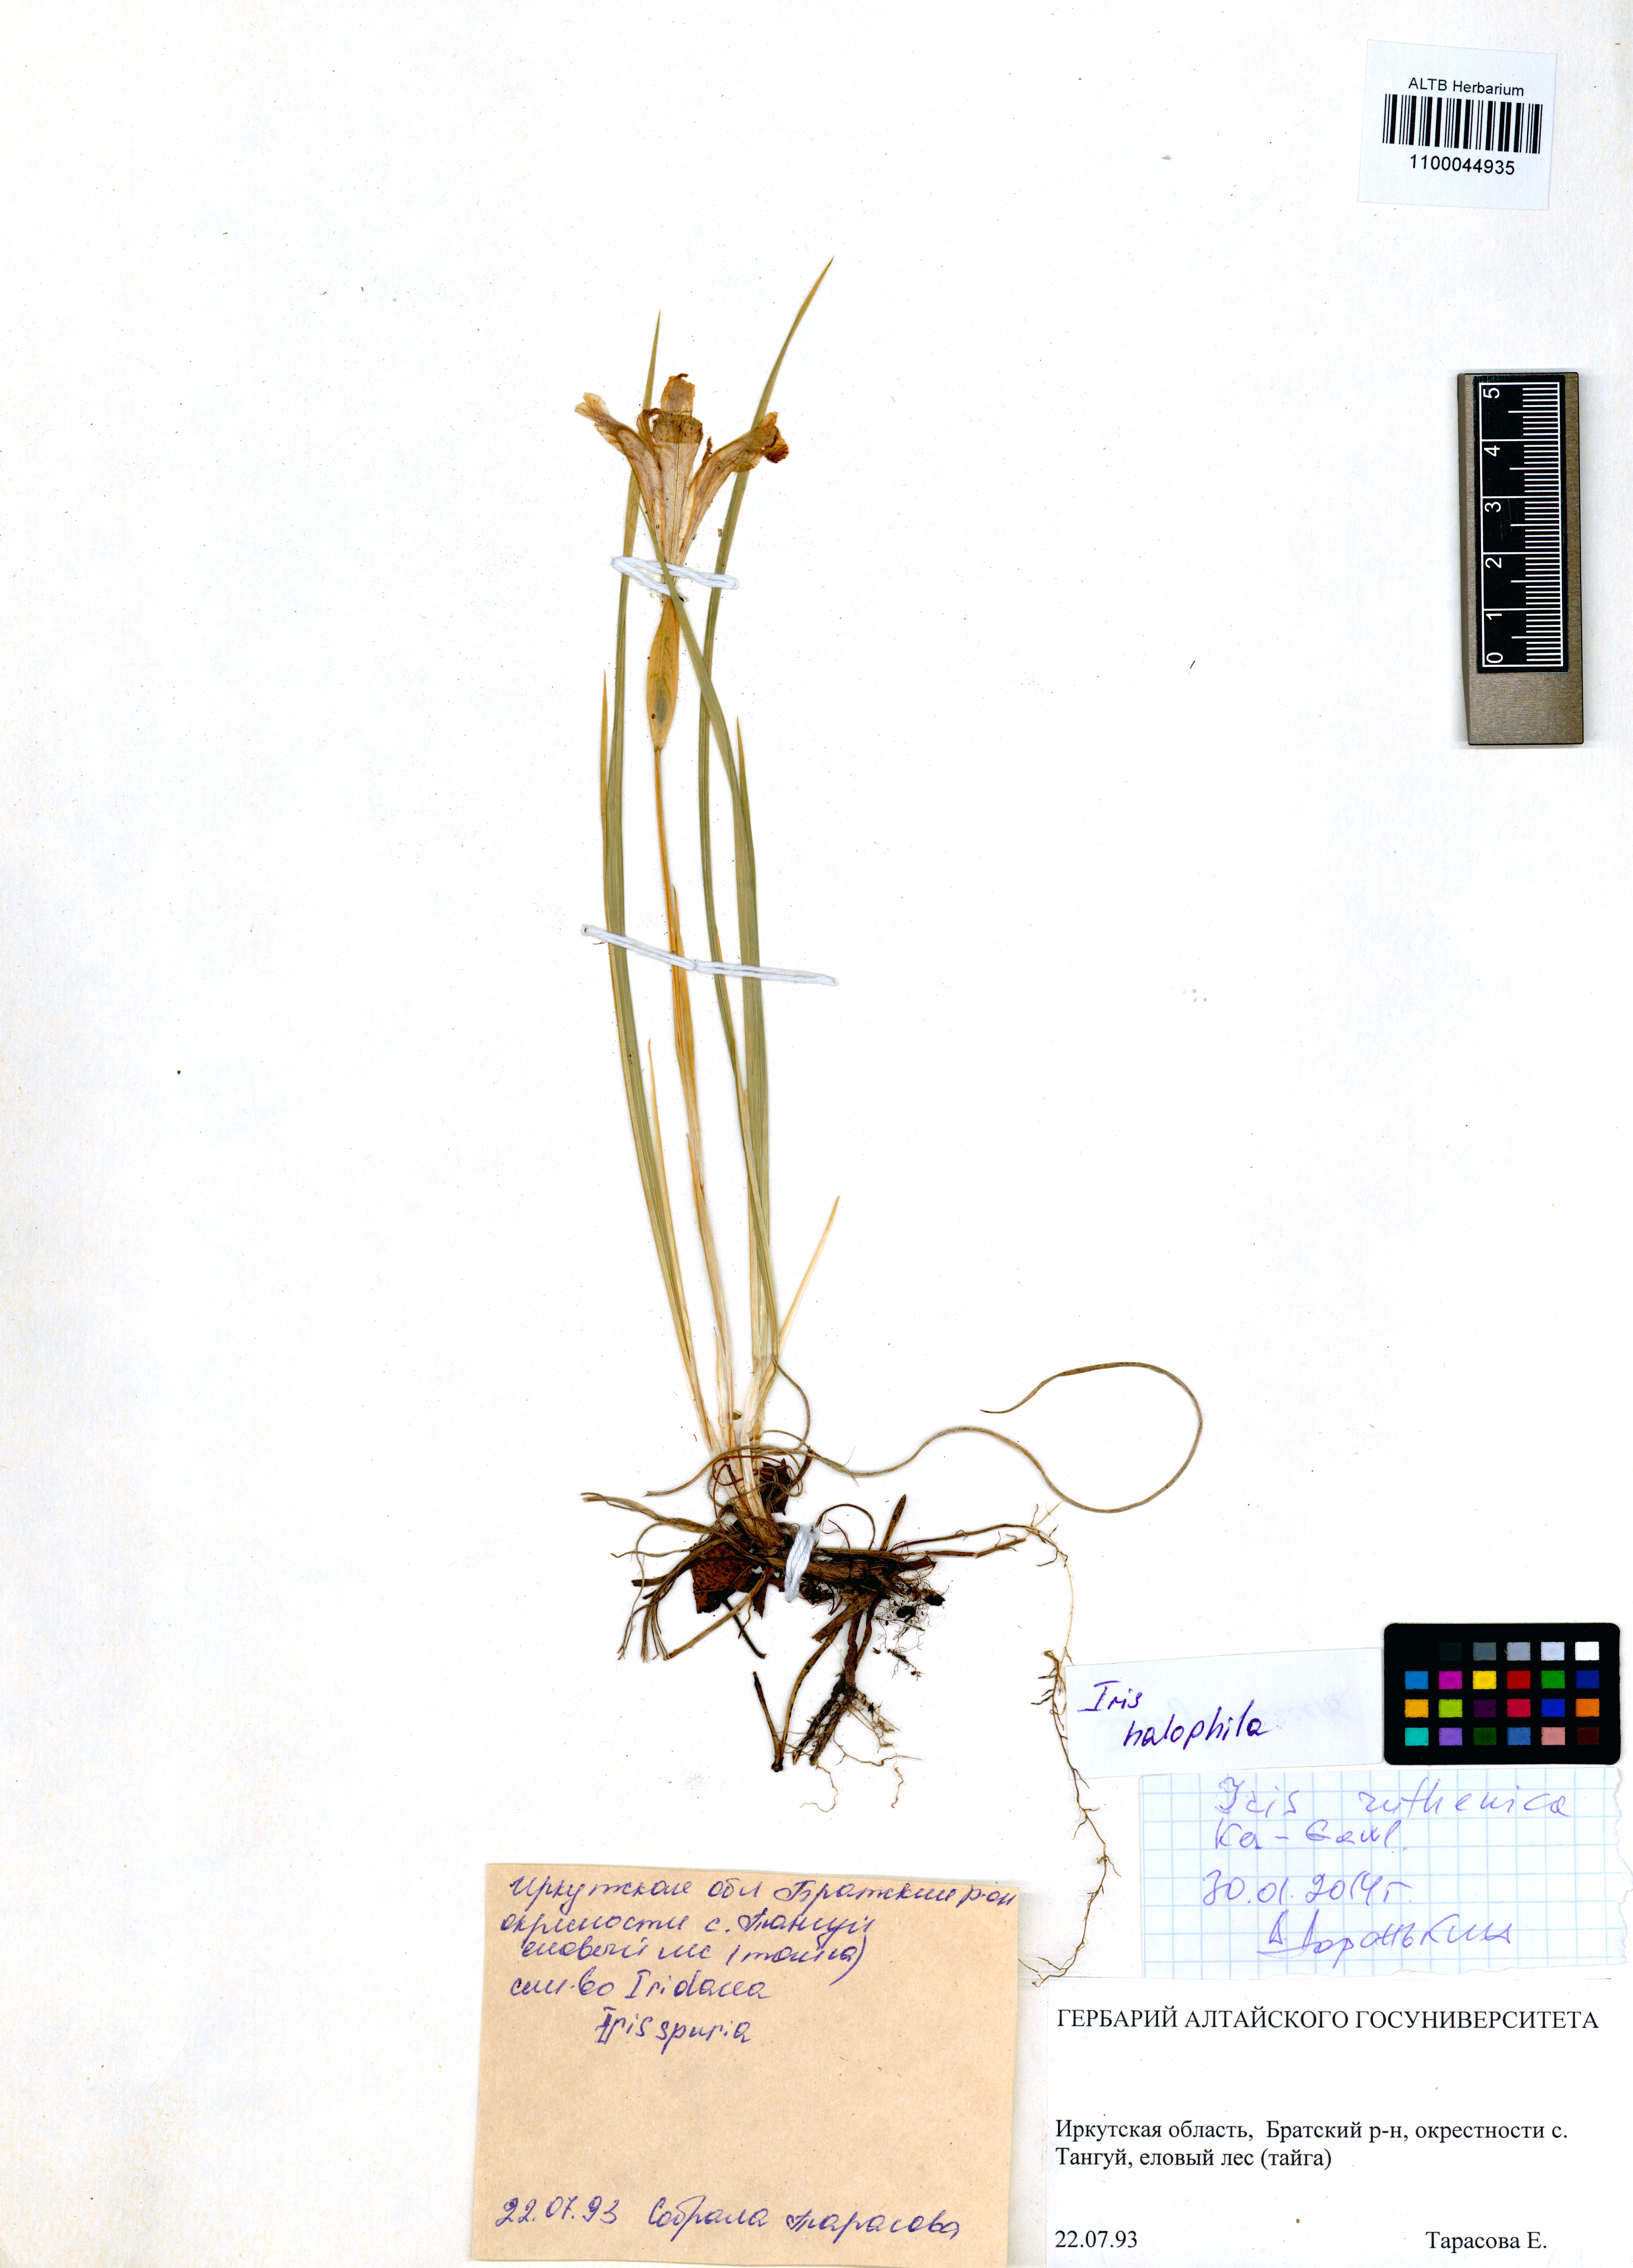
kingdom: Plantae
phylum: Tracheophyta
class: Liliopsida
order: Asparagales
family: Iridaceae
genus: Iris
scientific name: Iris halophila
